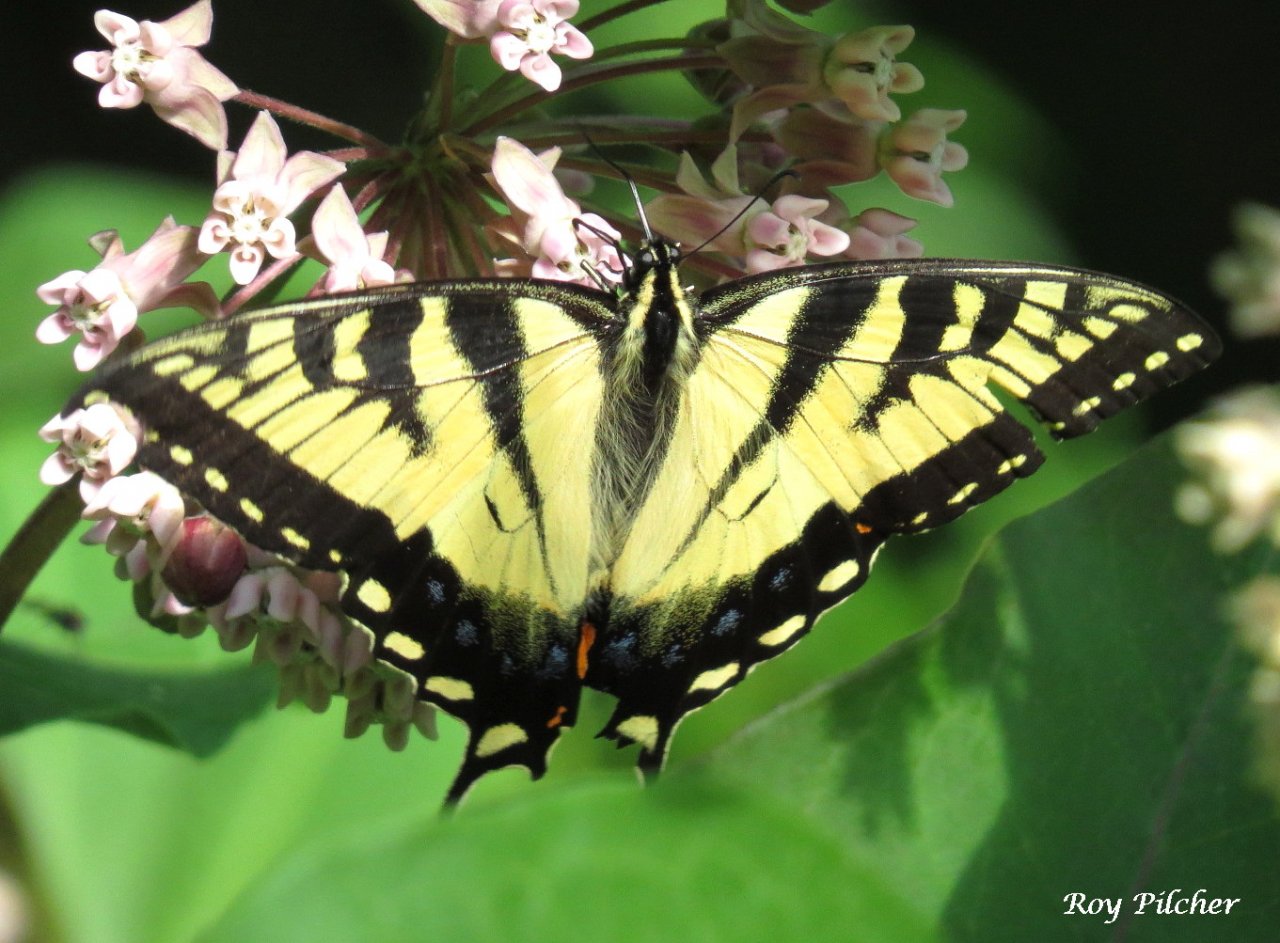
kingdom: Animalia
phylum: Arthropoda
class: Insecta
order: Lepidoptera
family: Papilionidae
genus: Pterourus
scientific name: Pterourus
